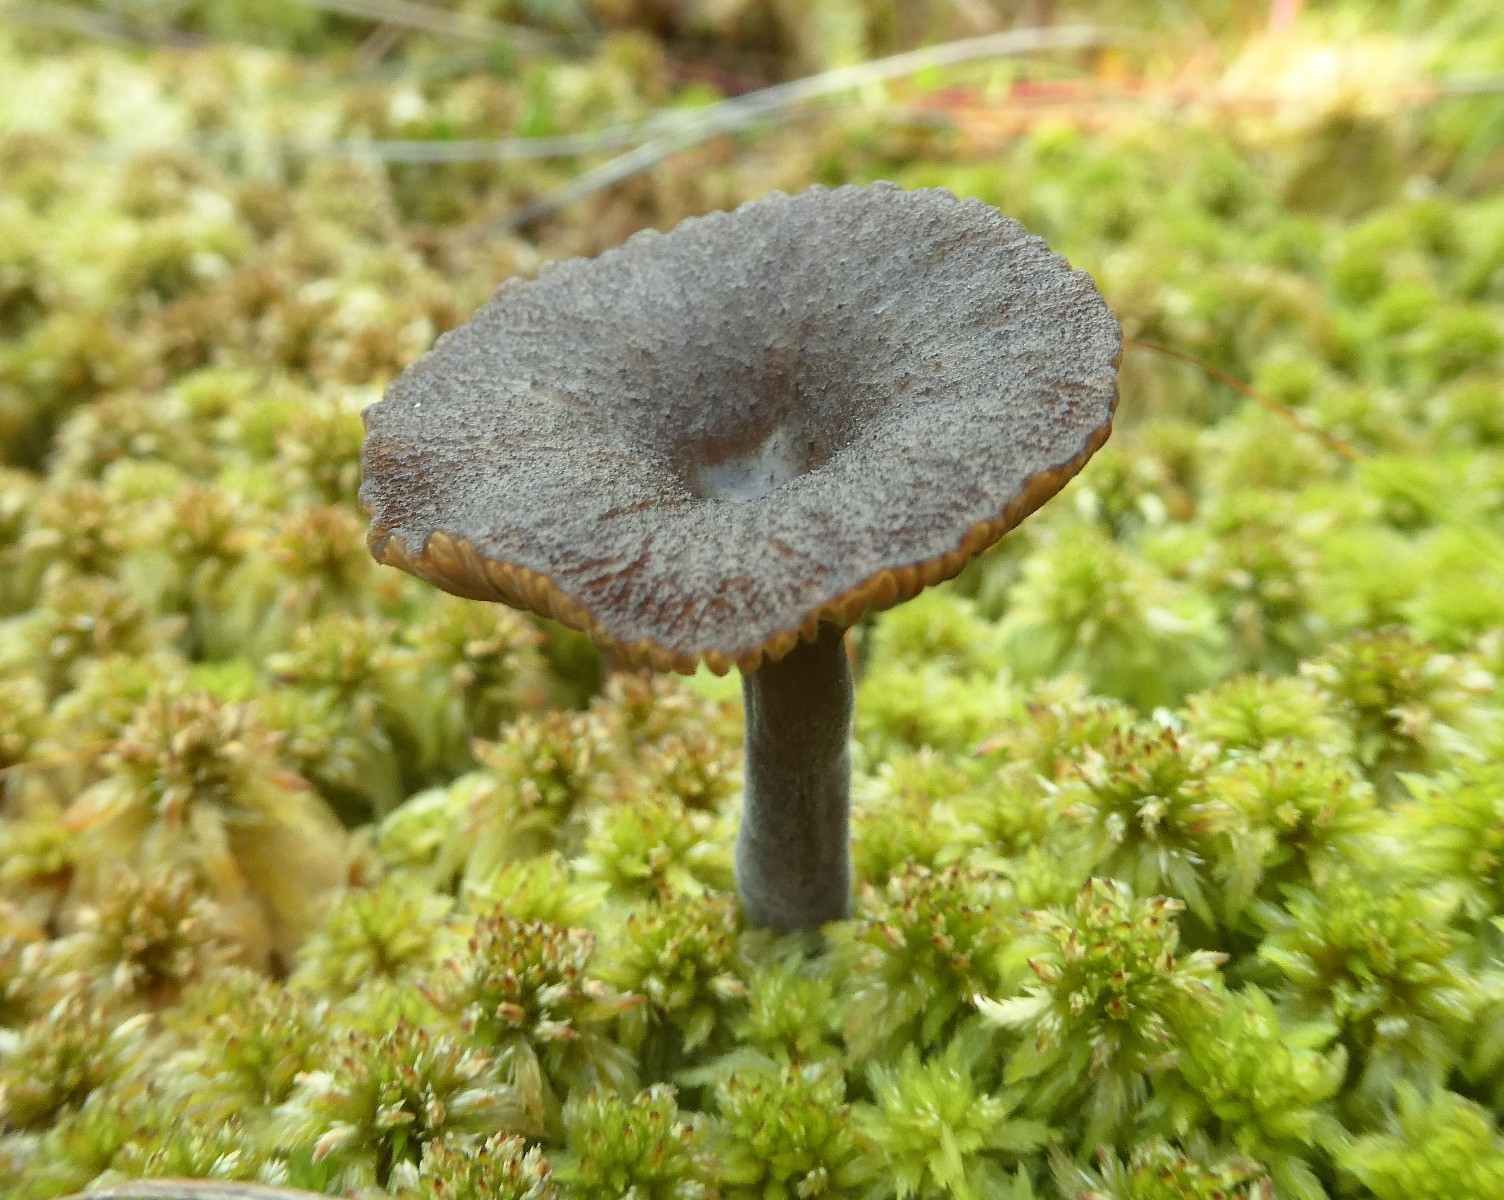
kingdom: Fungi
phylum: Basidiomycota
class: Agaricomycetes
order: Agaricales
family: Hygrophoraceae
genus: Arrhenia
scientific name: Arrhenia gerardiana
